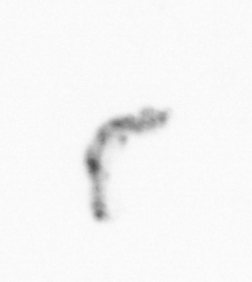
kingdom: Chromista
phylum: Ochrophyta
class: Bacillariophyceae
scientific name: Bacillariophyceae
